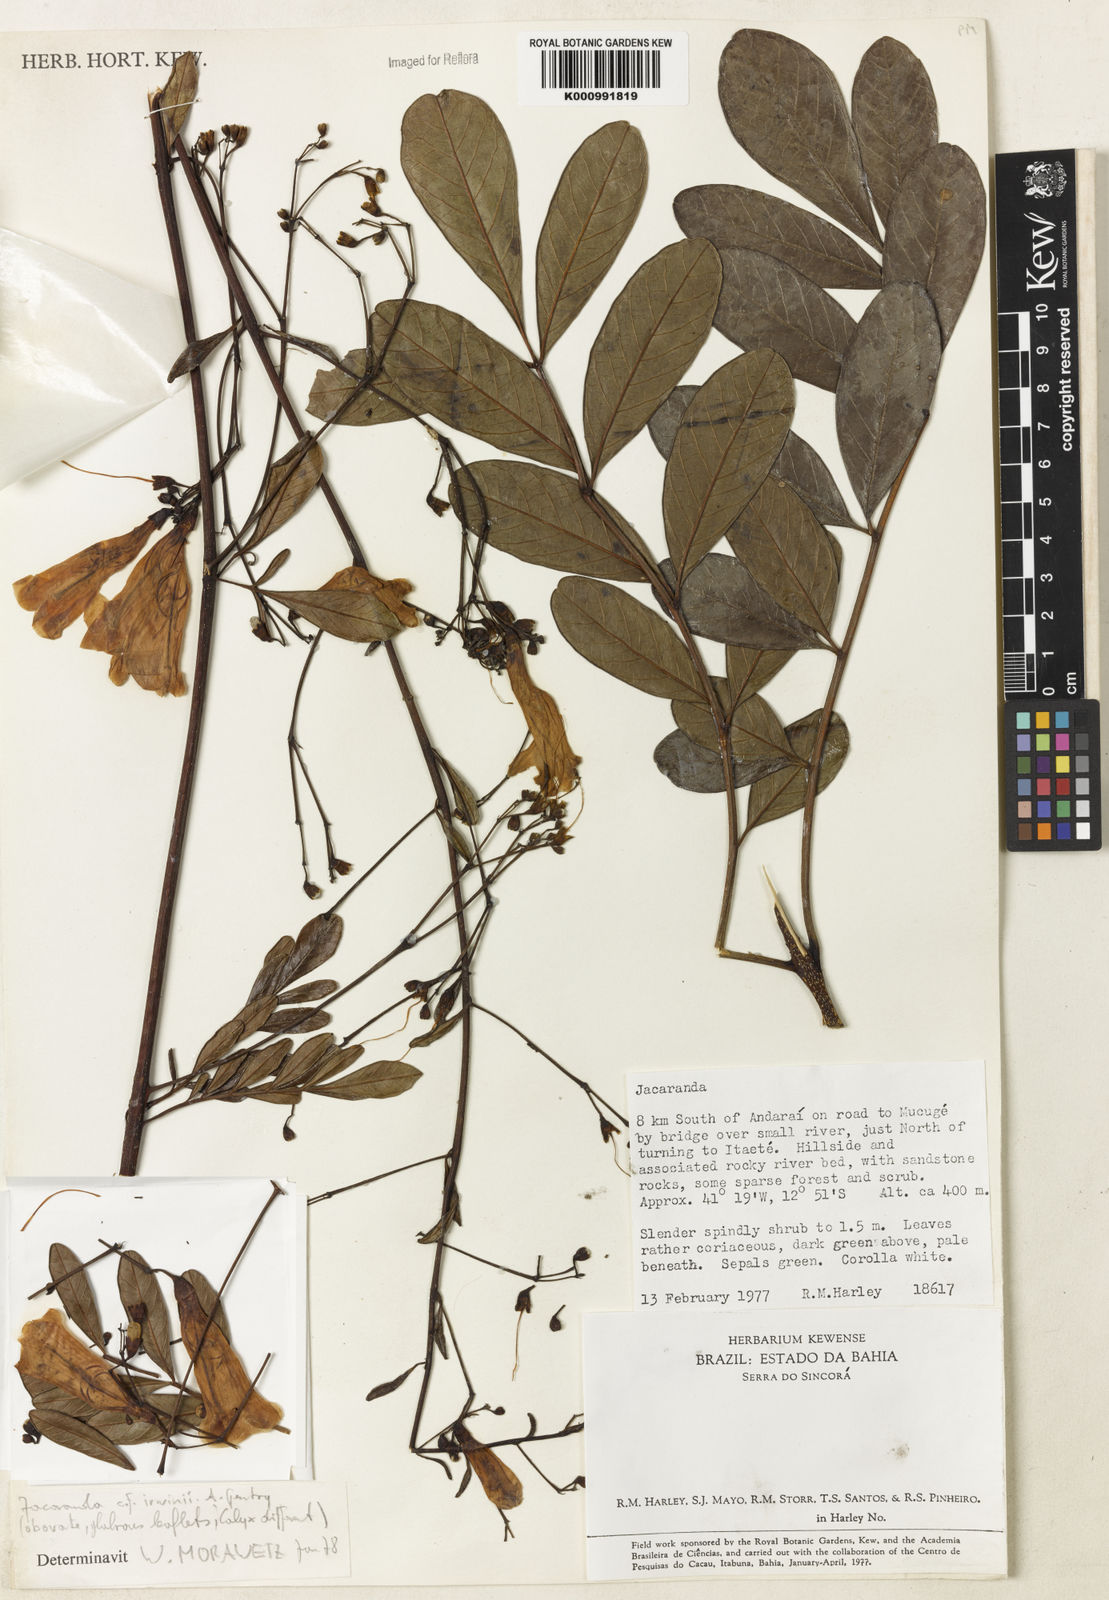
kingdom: Plantae
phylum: Tracheophyta
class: Magnoliopsida
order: Lamiales
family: Bignoniaceae
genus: Jacaranda
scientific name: Jacaranda irwinii
